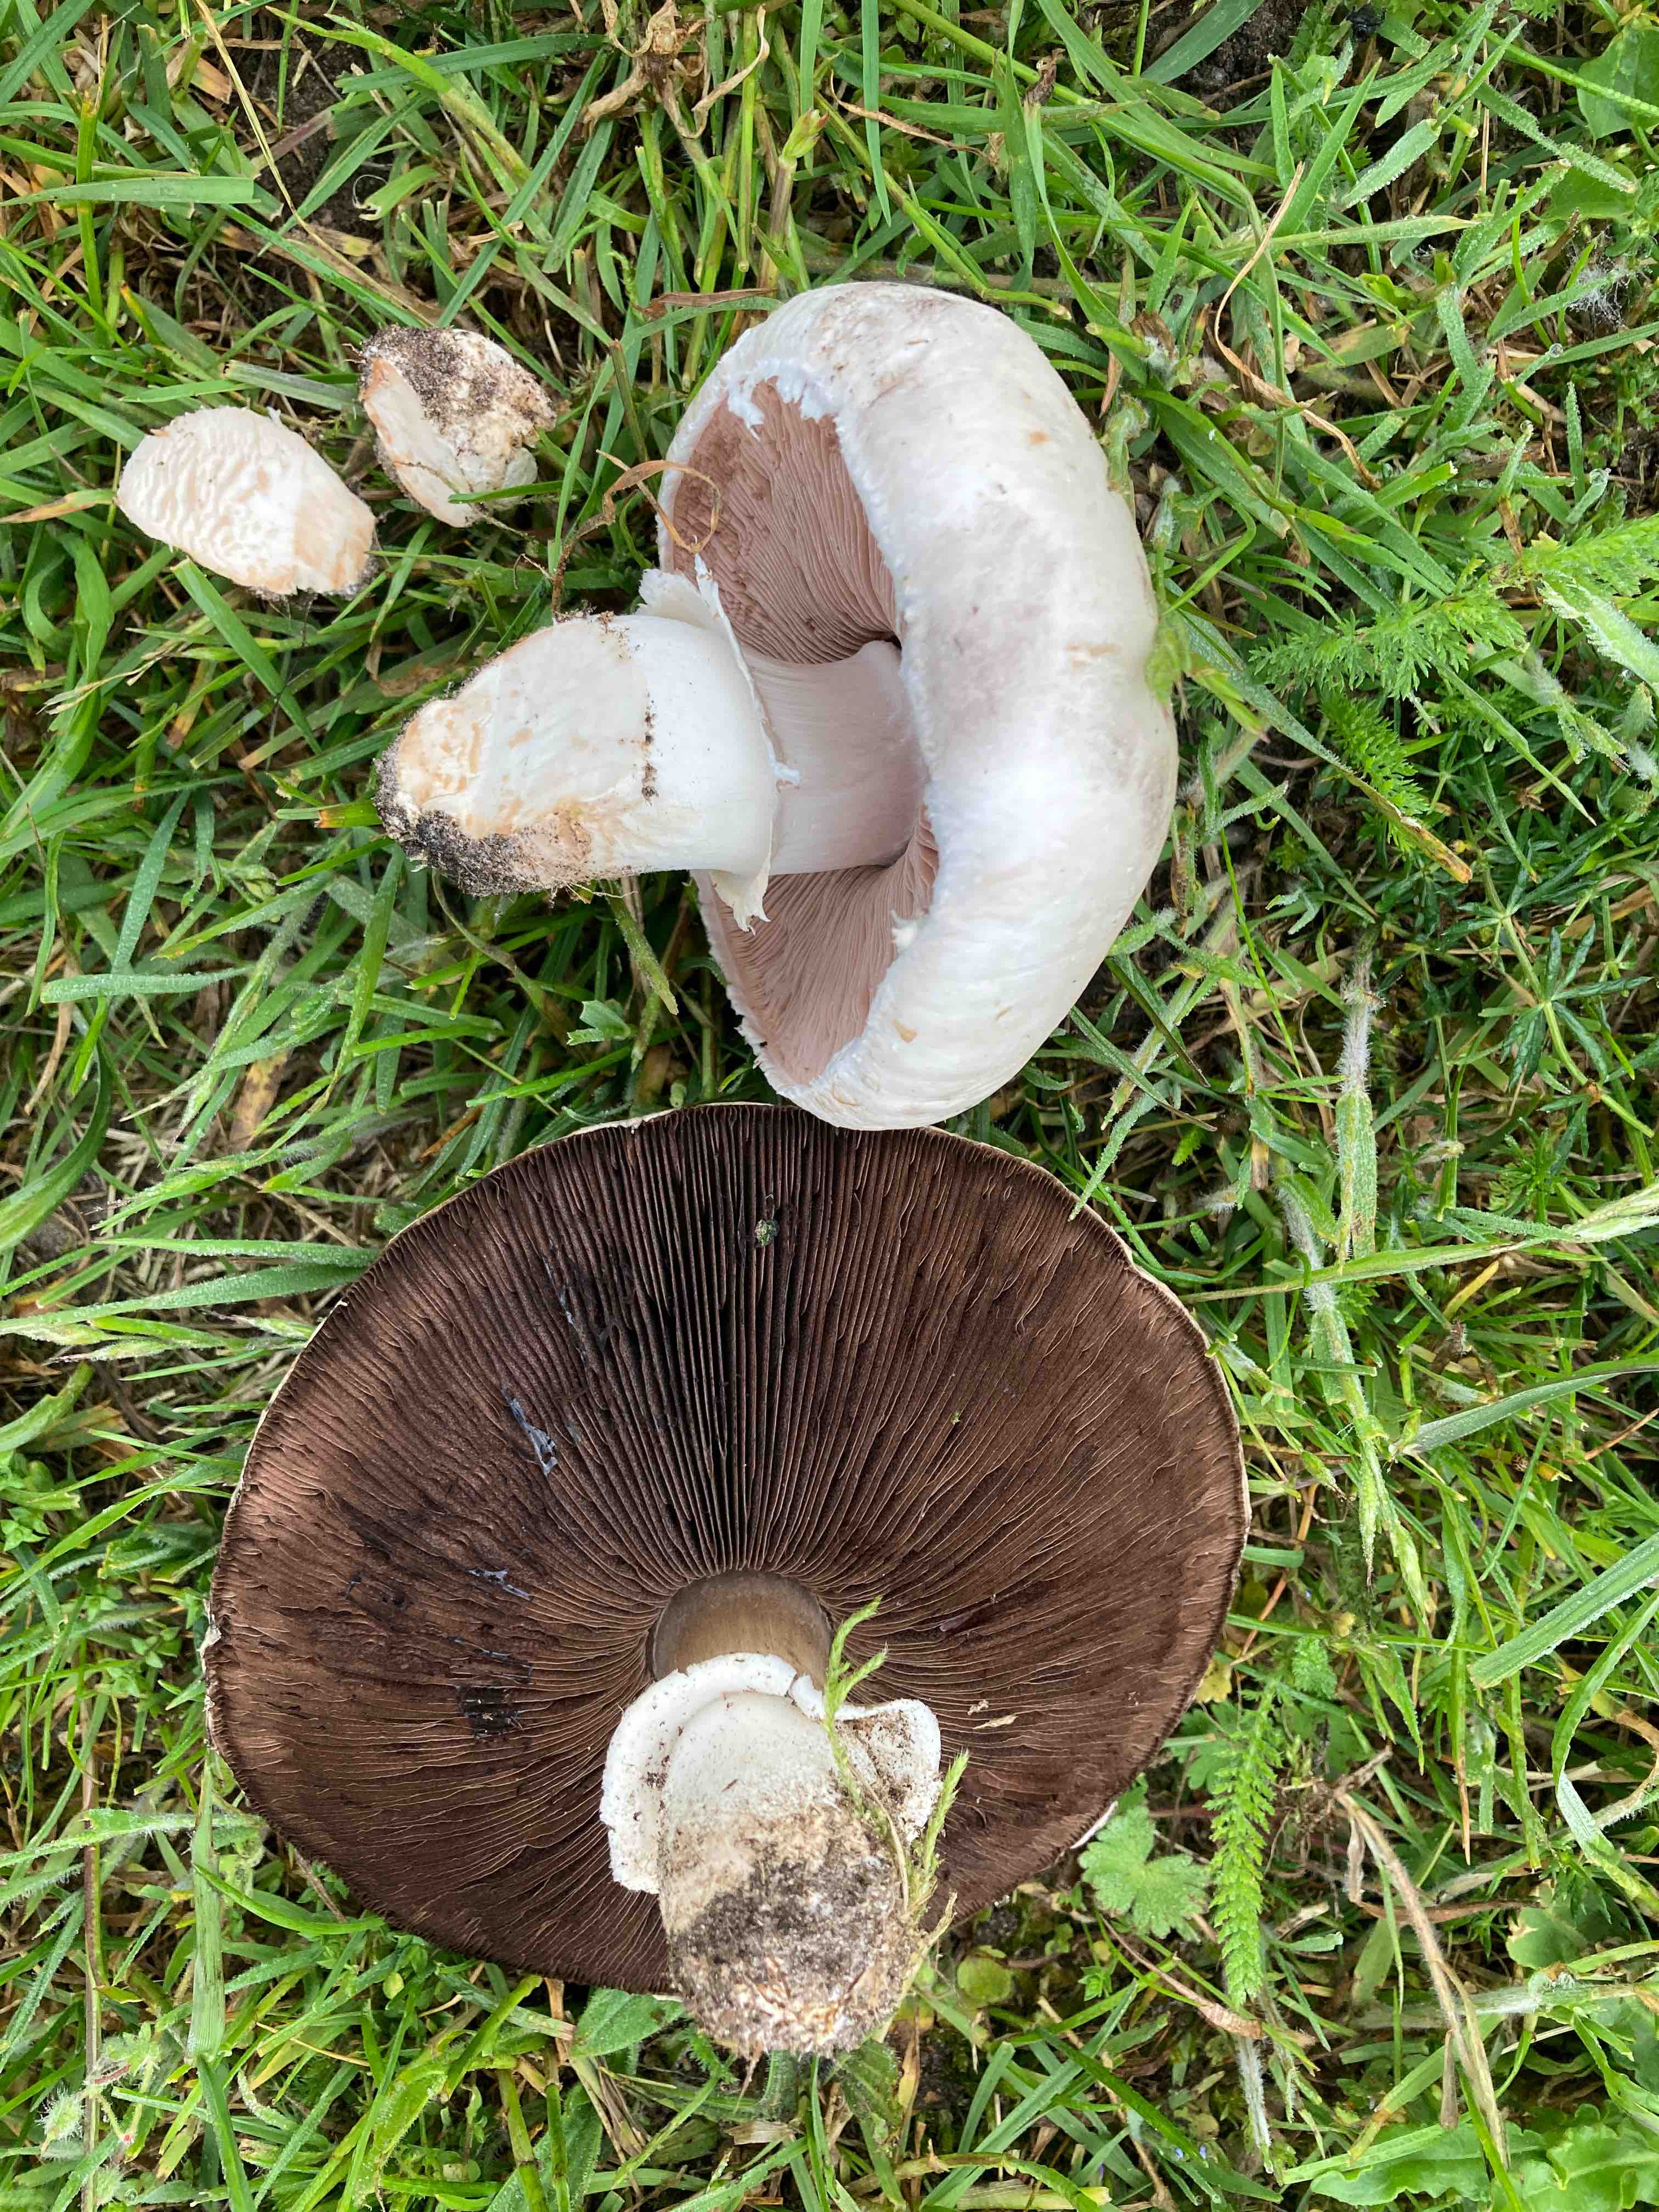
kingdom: Fungi
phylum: Basidiomycota
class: Agaricomycetes
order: Agaricales
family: Agaricaceae
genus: Agaricus
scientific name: Agaricus litoralis
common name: kyst-champignon
